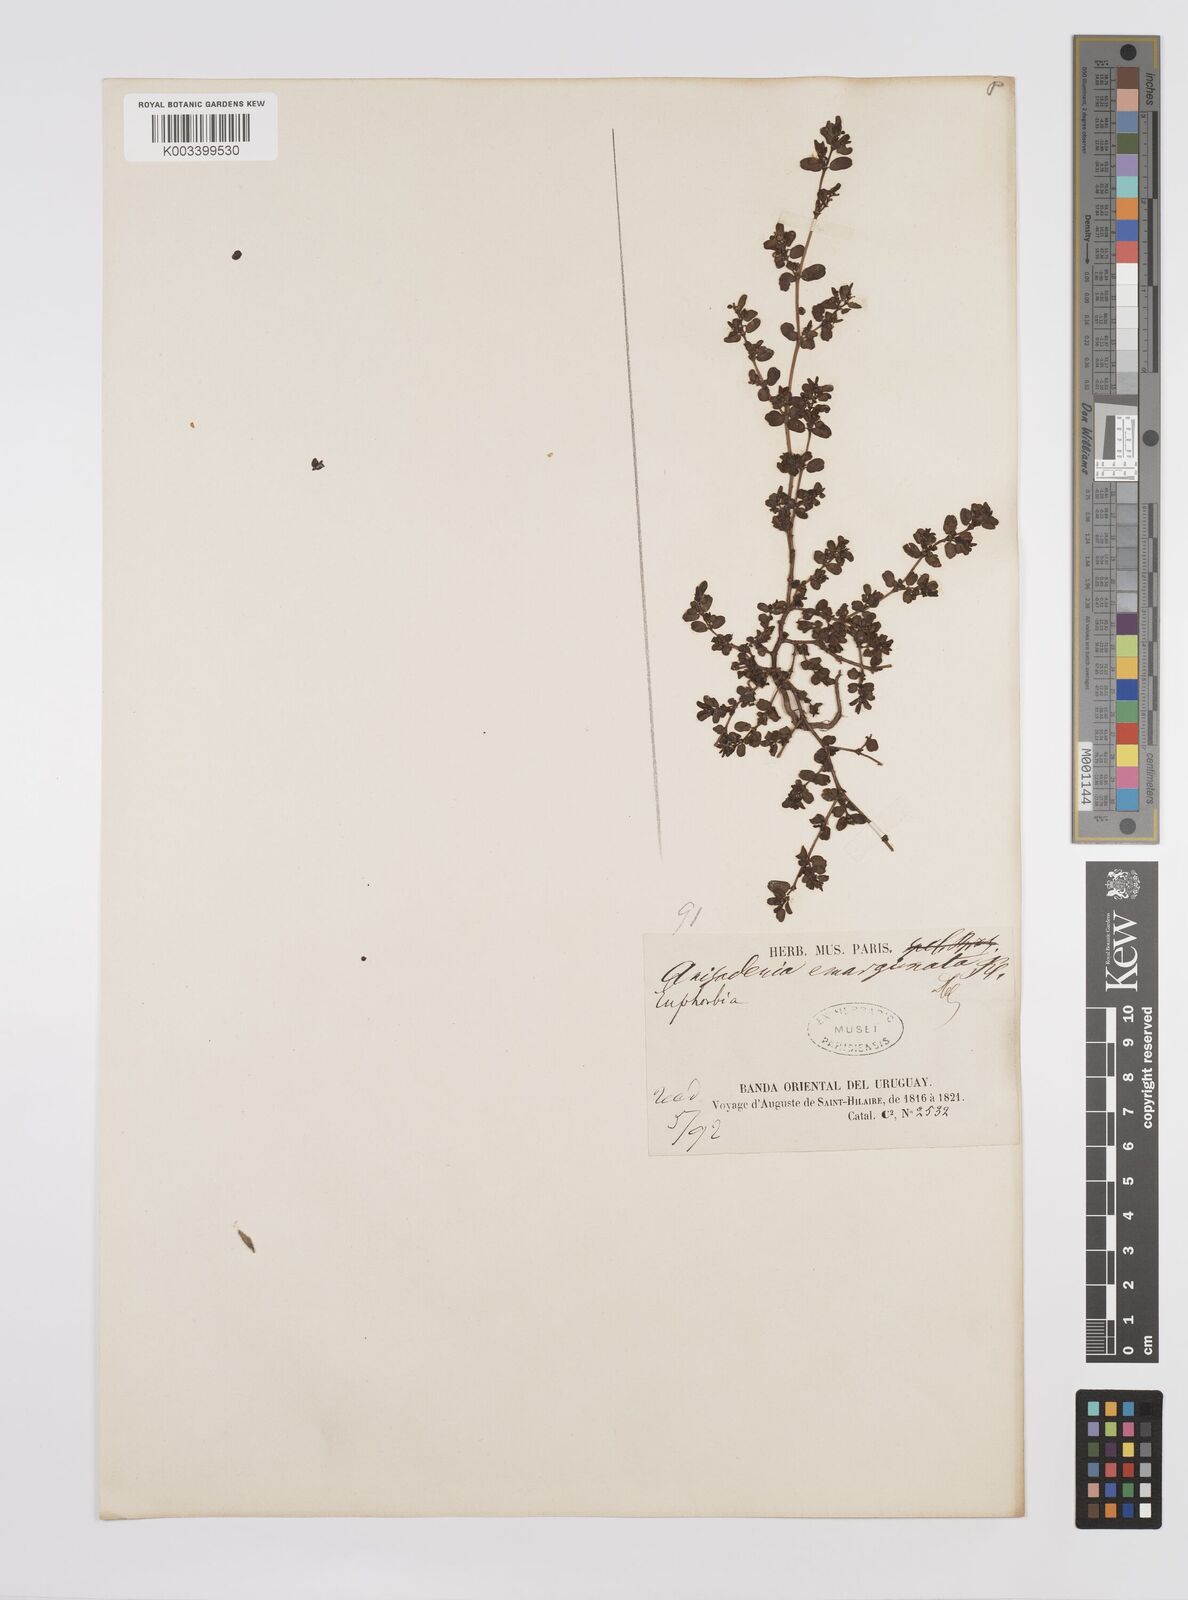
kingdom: Plantae
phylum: Tracheophyta
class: Magnoliopsida
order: Malpighiales
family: Euphorbiaceae
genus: Euphorbia
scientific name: Euphorbia
